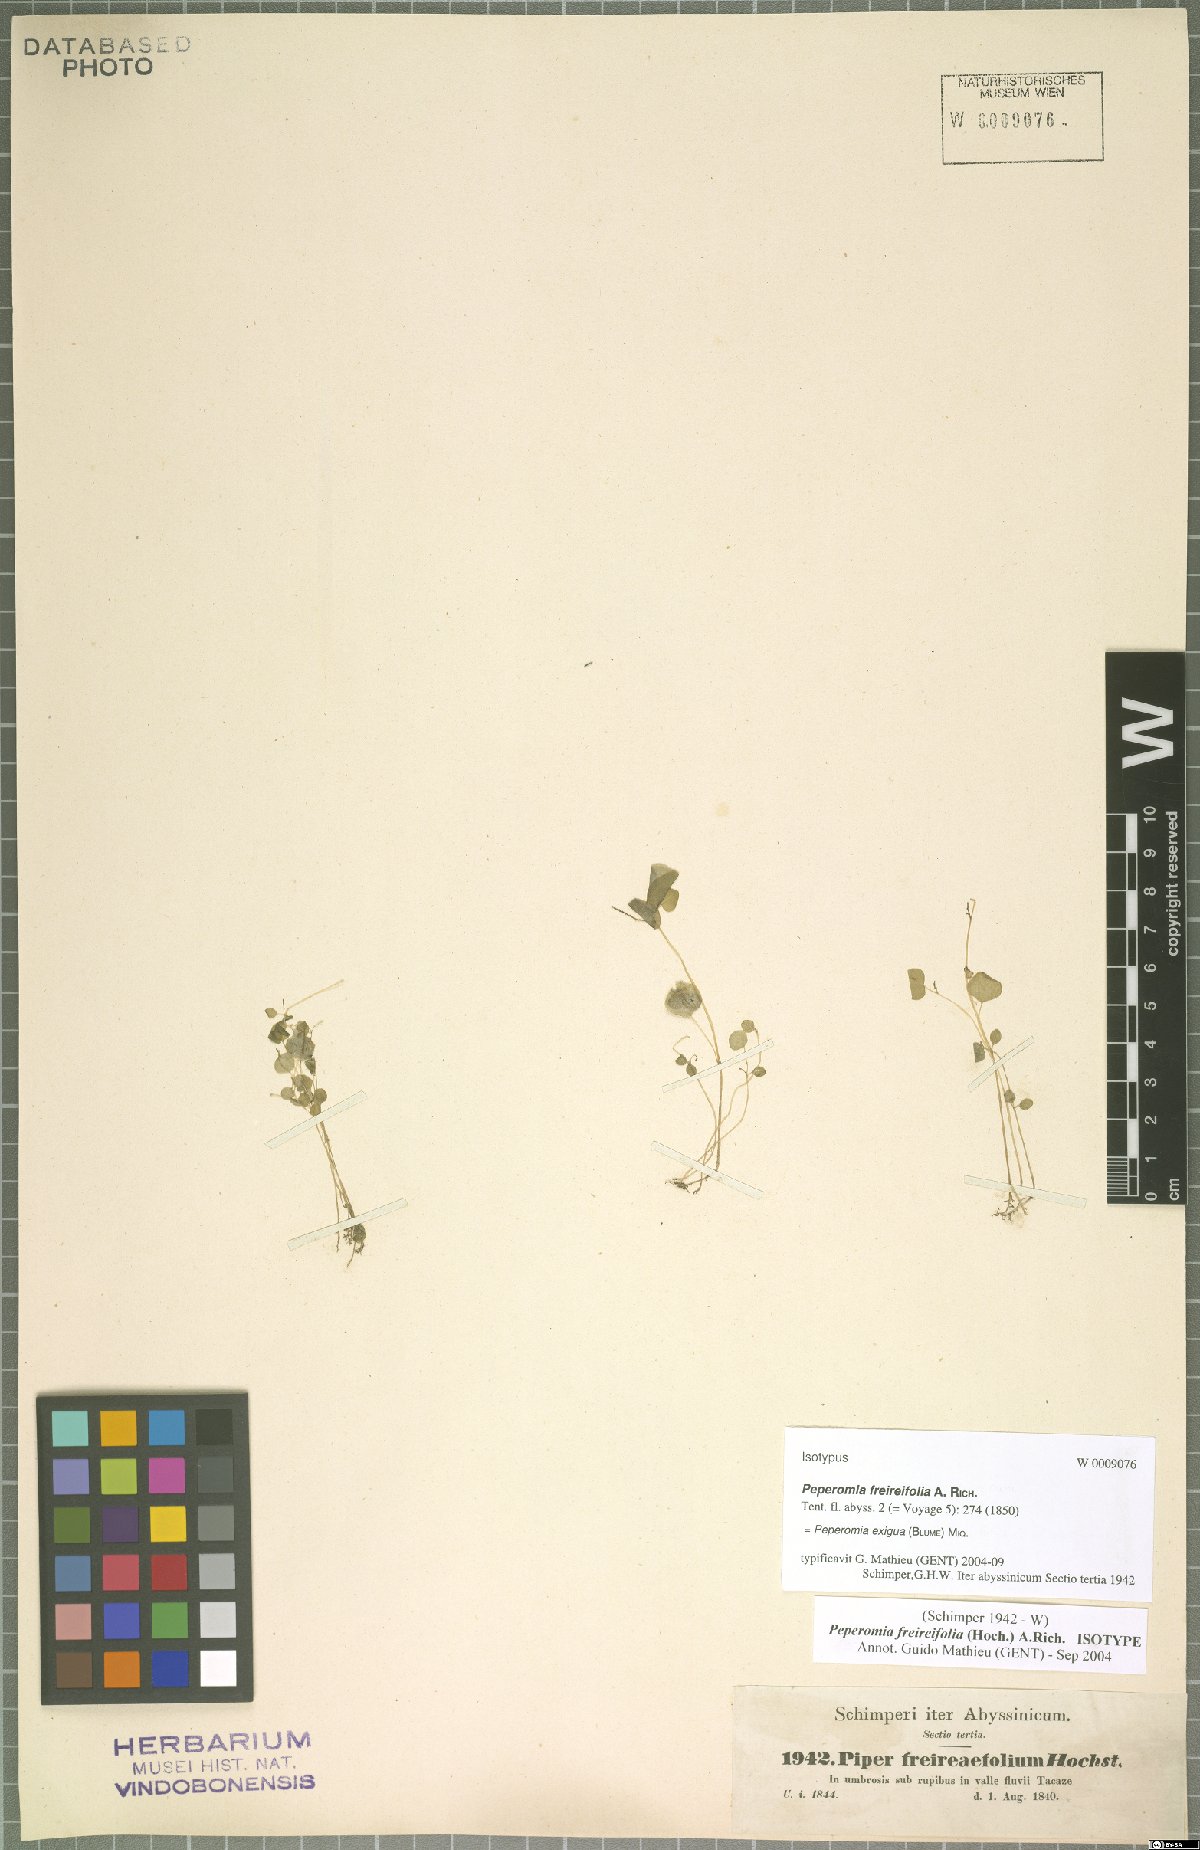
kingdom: Plantae
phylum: Tracheophyta
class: Magnoliopsida
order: Piperales
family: Piperaceae
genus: Peperomia
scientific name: Peperomia pellucida
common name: Man to man
